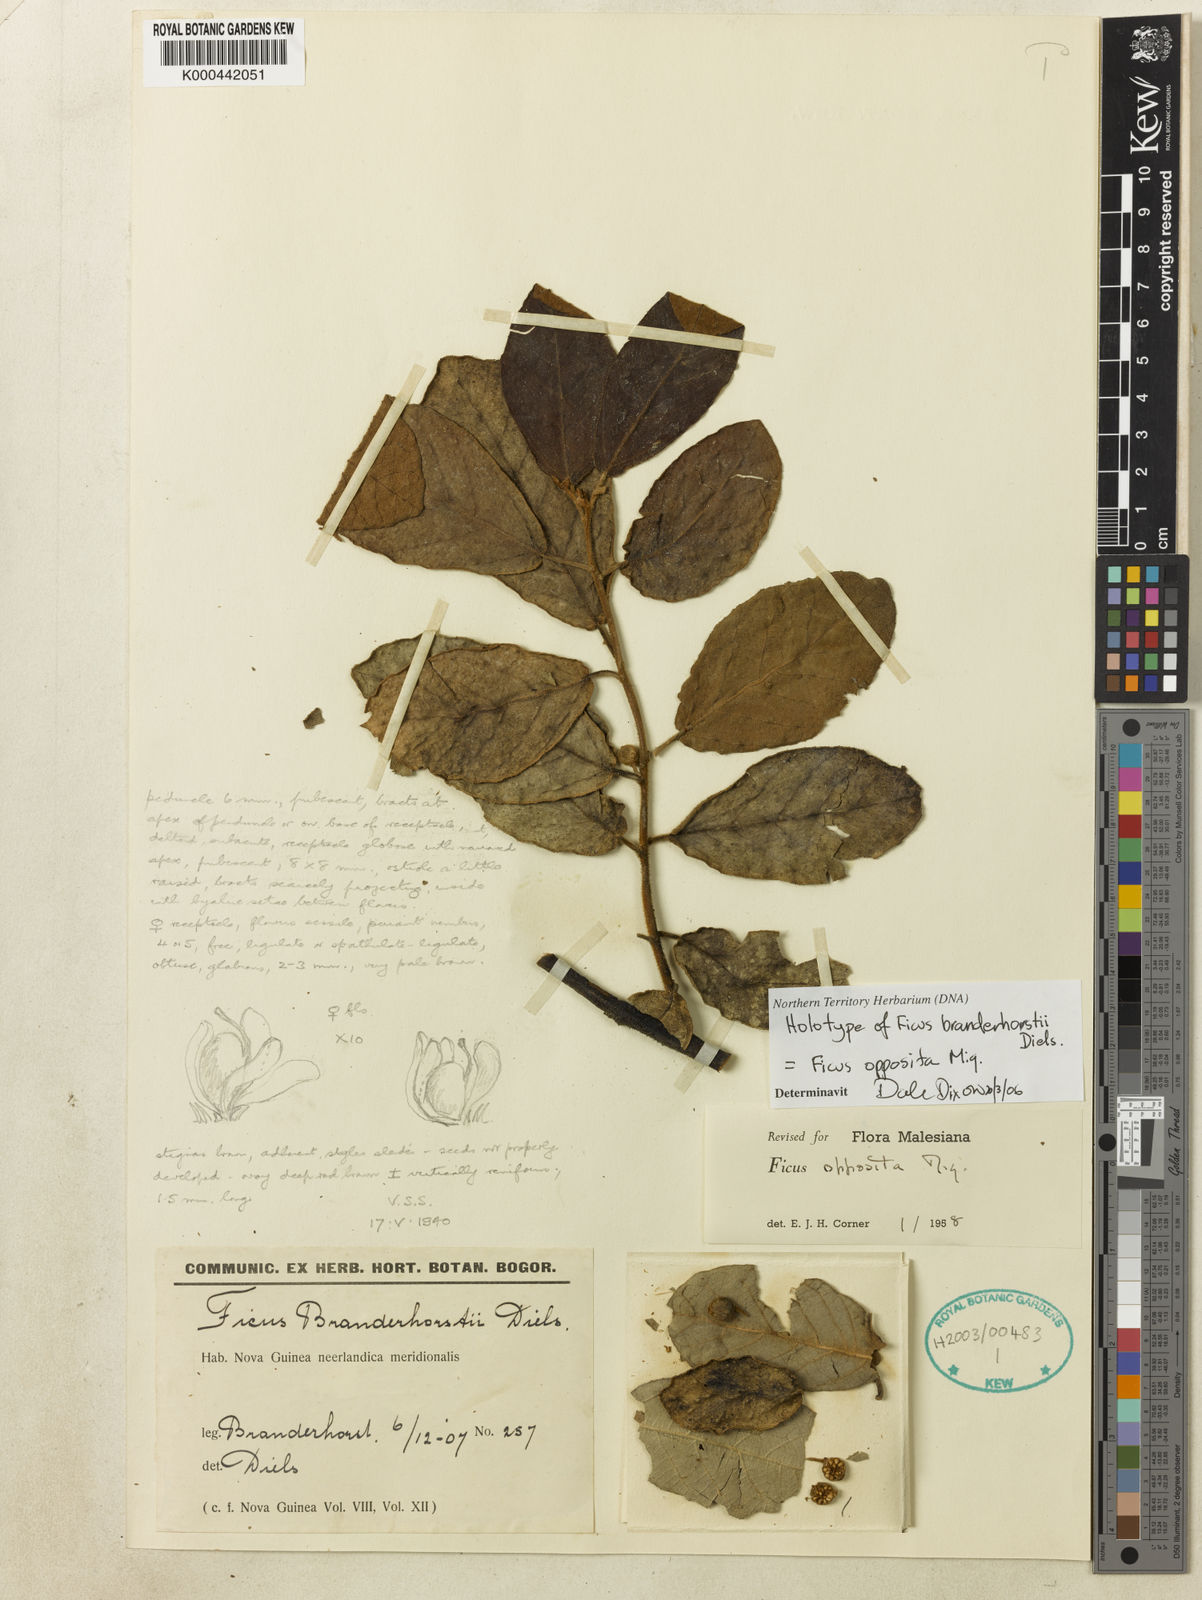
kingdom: Plantae
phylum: Tracheophyta
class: Magnoliopsida
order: Rosales
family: Moraceae
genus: Ficus
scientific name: Ficus opposita
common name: Figwood
